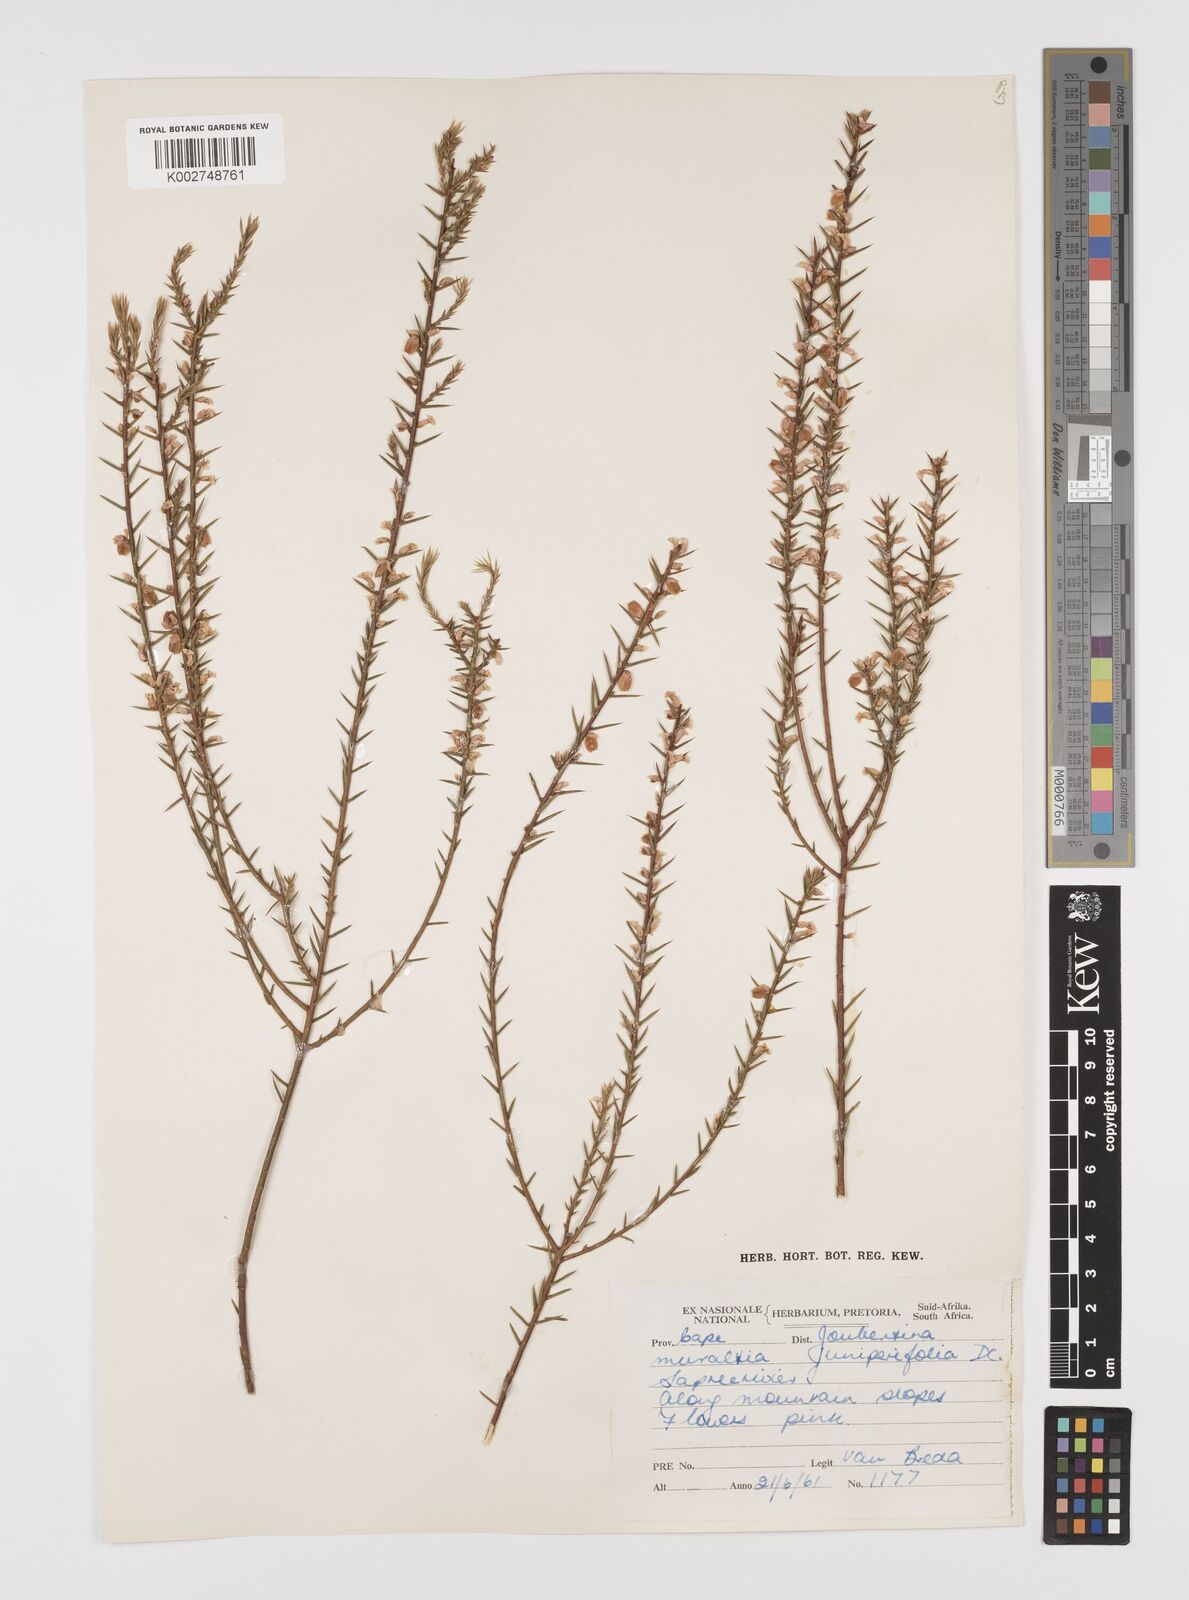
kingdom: Plantae
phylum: Tracheophyta
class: Magnoliopsida
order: Fabales
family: Polygalaceae
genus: Muraltia
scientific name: Muraltia juniperifolia
